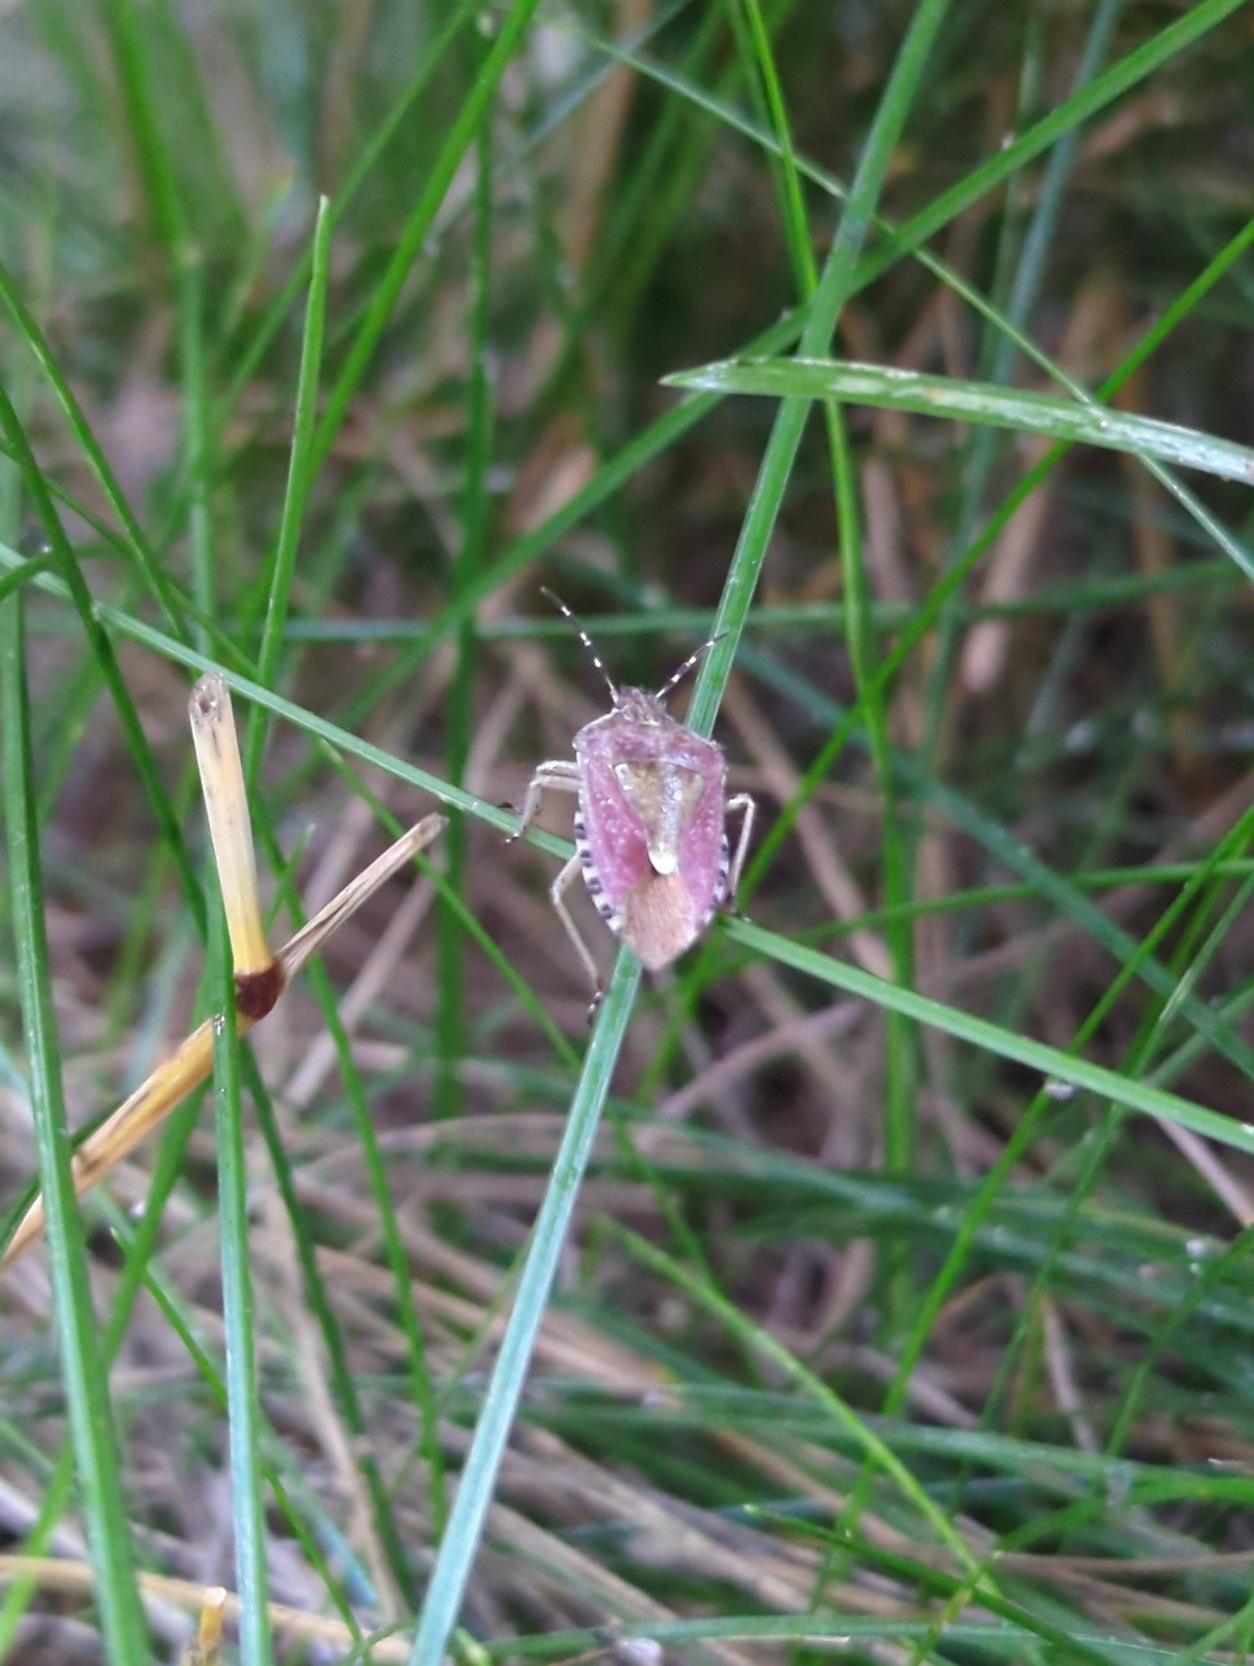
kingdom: Animalia
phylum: Arthropoda
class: Insecta
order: Hemiptera
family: Pentatomidae
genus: Dolycoris
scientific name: Dolycoris baccarum
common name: Almindelig bærtæge
